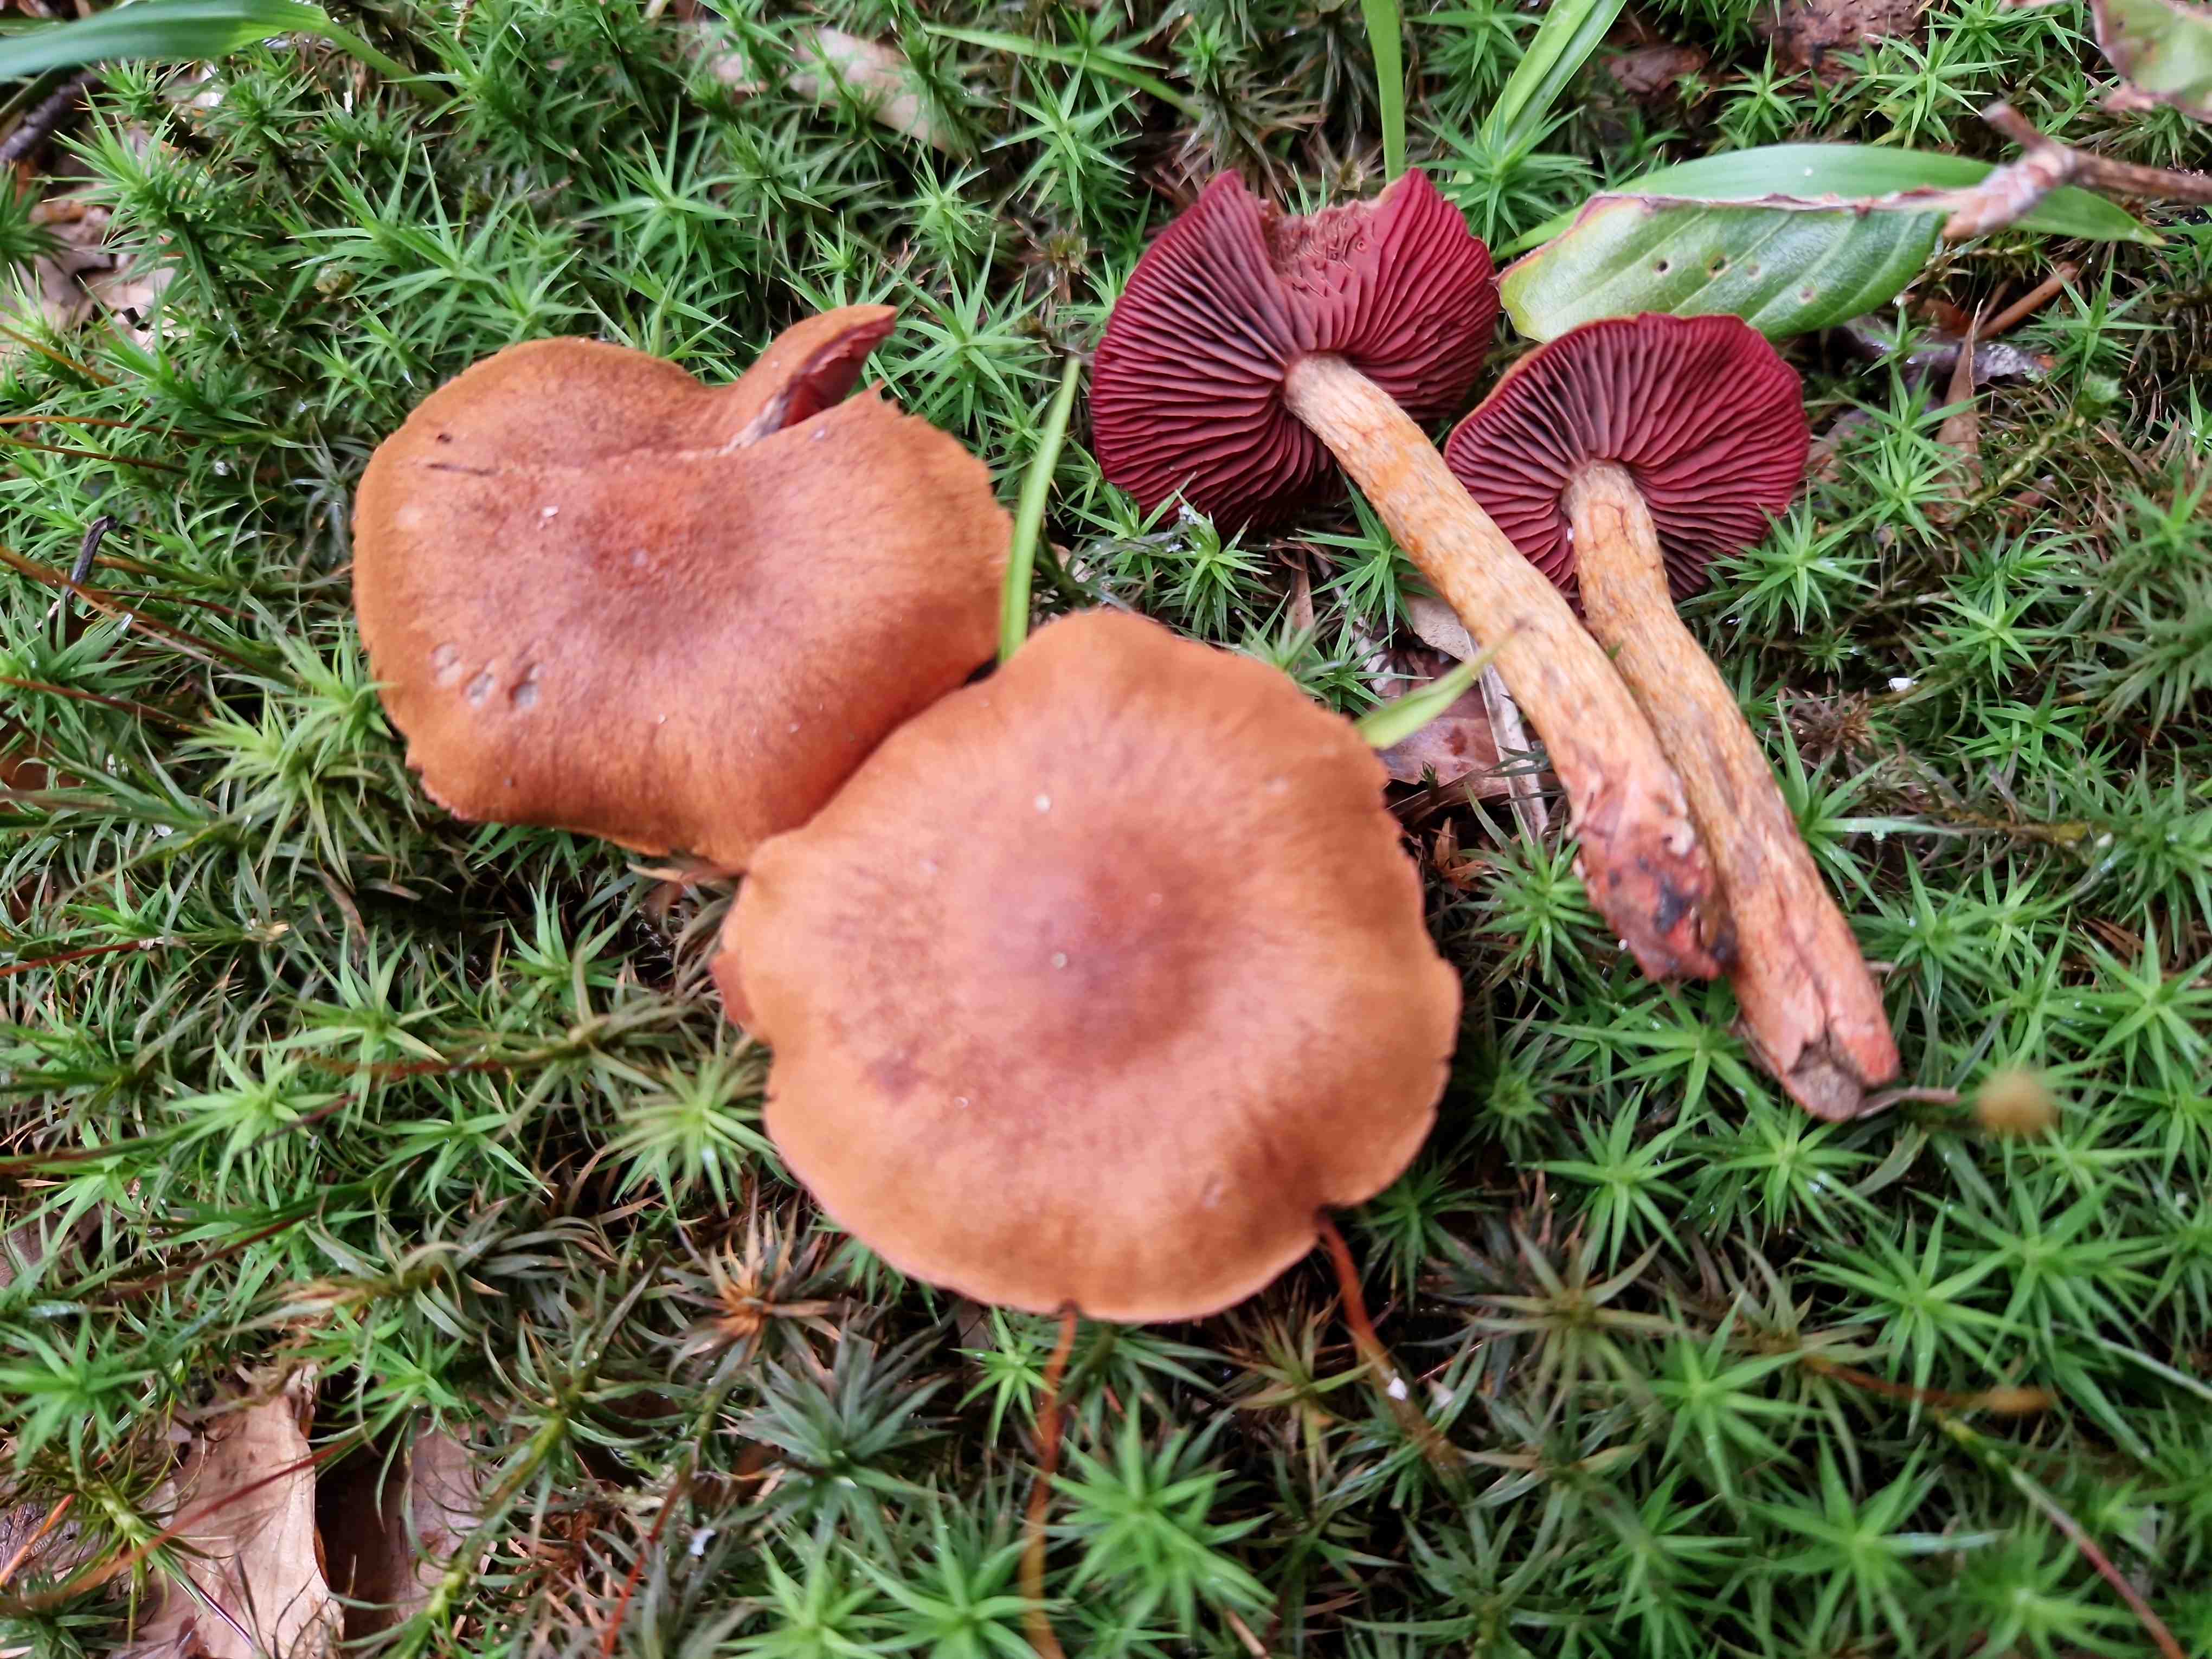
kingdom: Fungi
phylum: Basidiomycota
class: Agaricomycetes
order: Agaricales
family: Cortinariaceae
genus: Cortinarius
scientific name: Cortinarius purpureus
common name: brunrød slørhat
